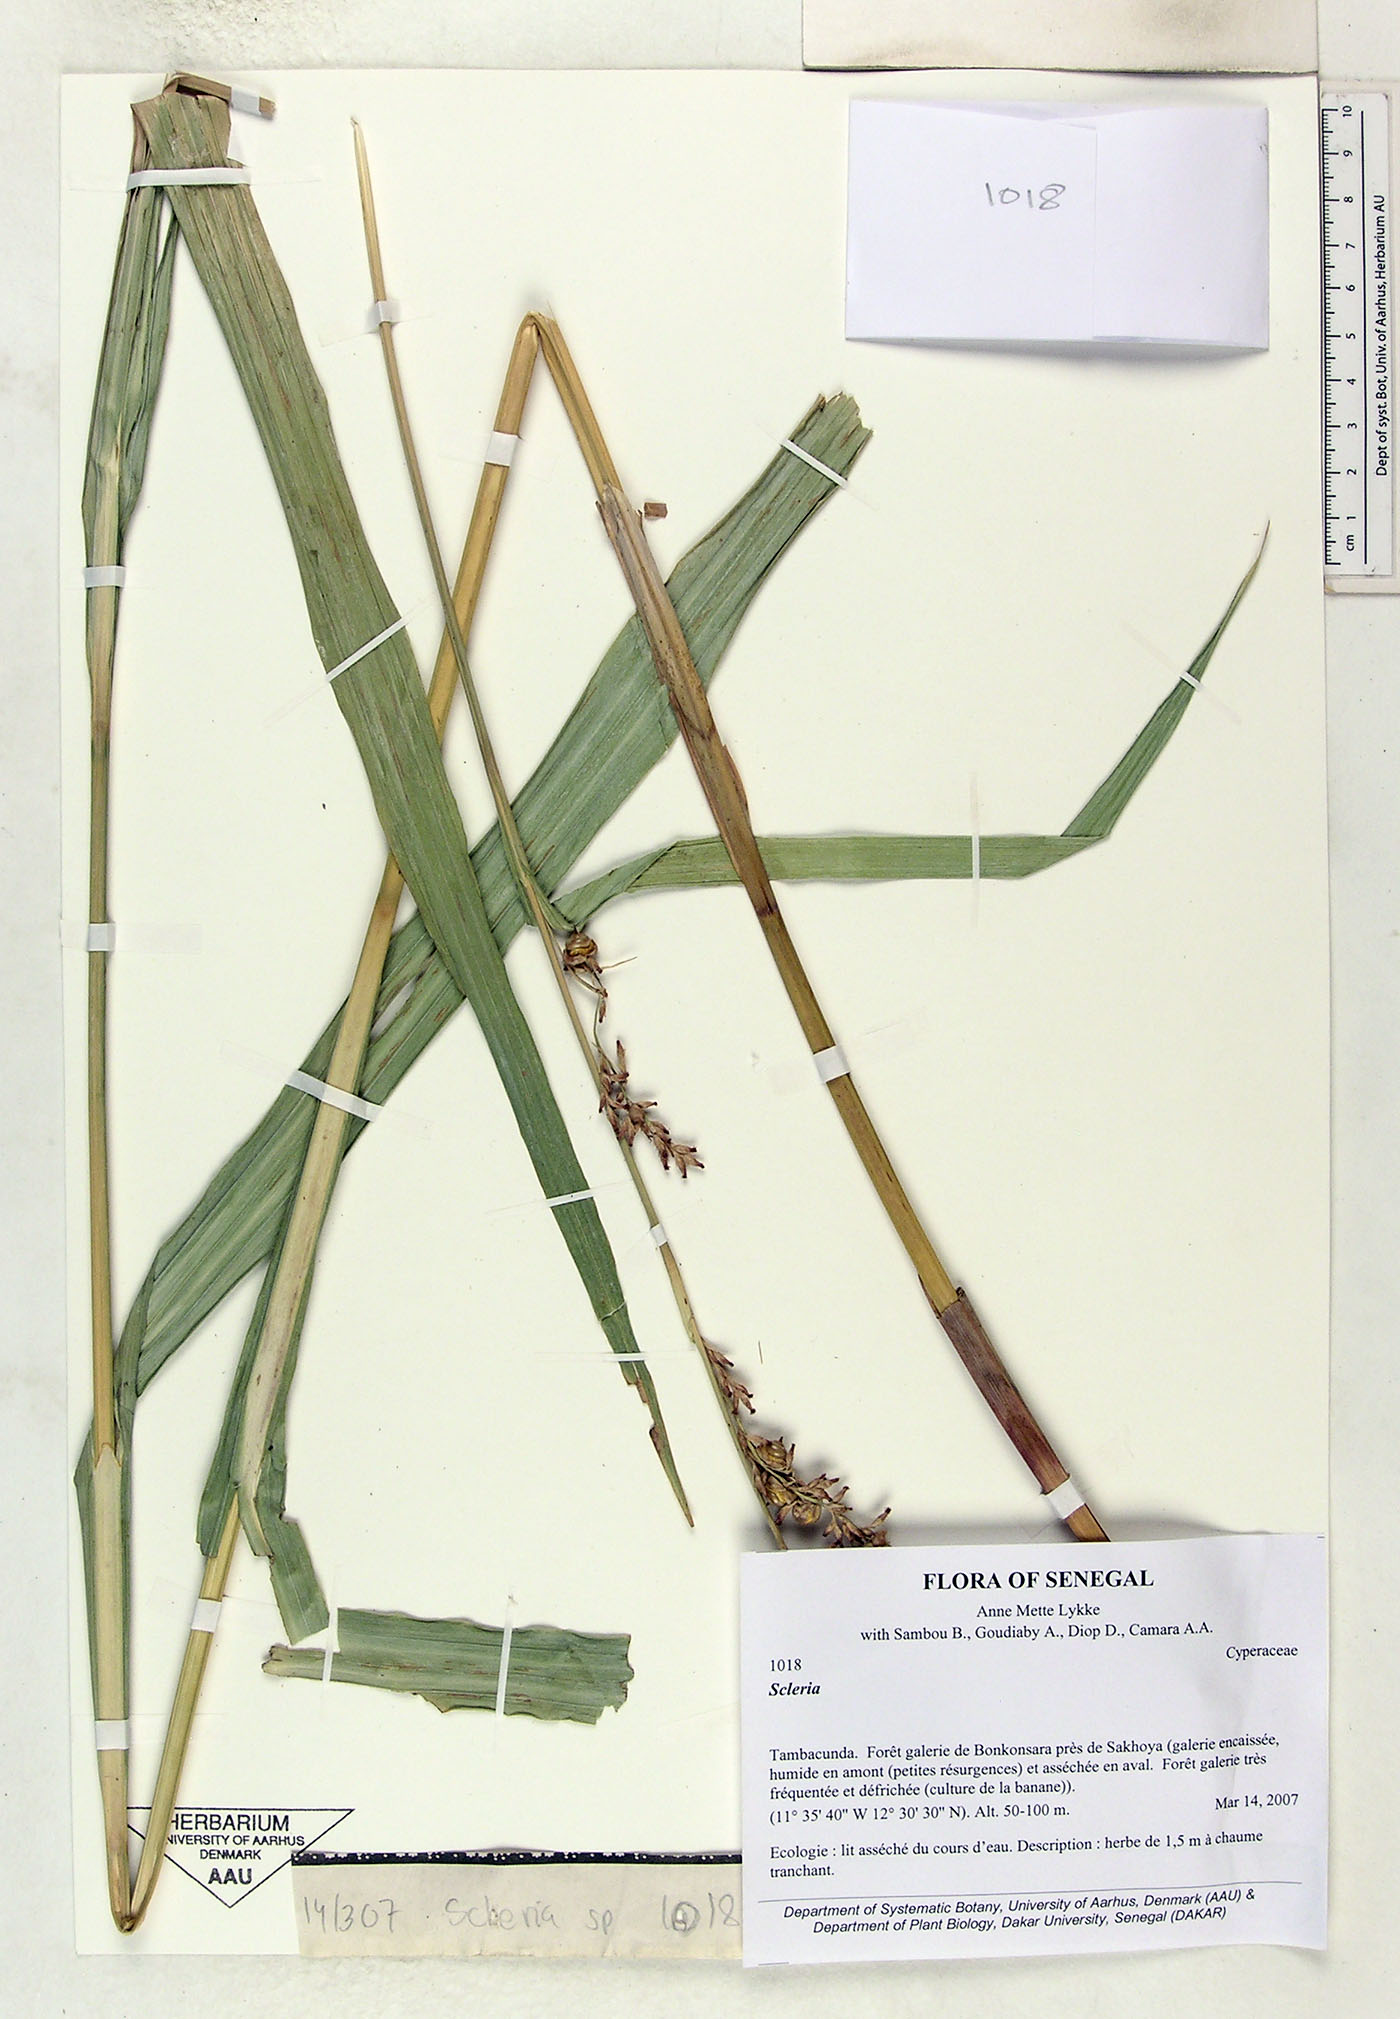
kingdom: Plantae
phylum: Tracheophyta
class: Liliopsida
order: Poales
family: Cyperaceae
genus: Scleria
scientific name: Scleria
